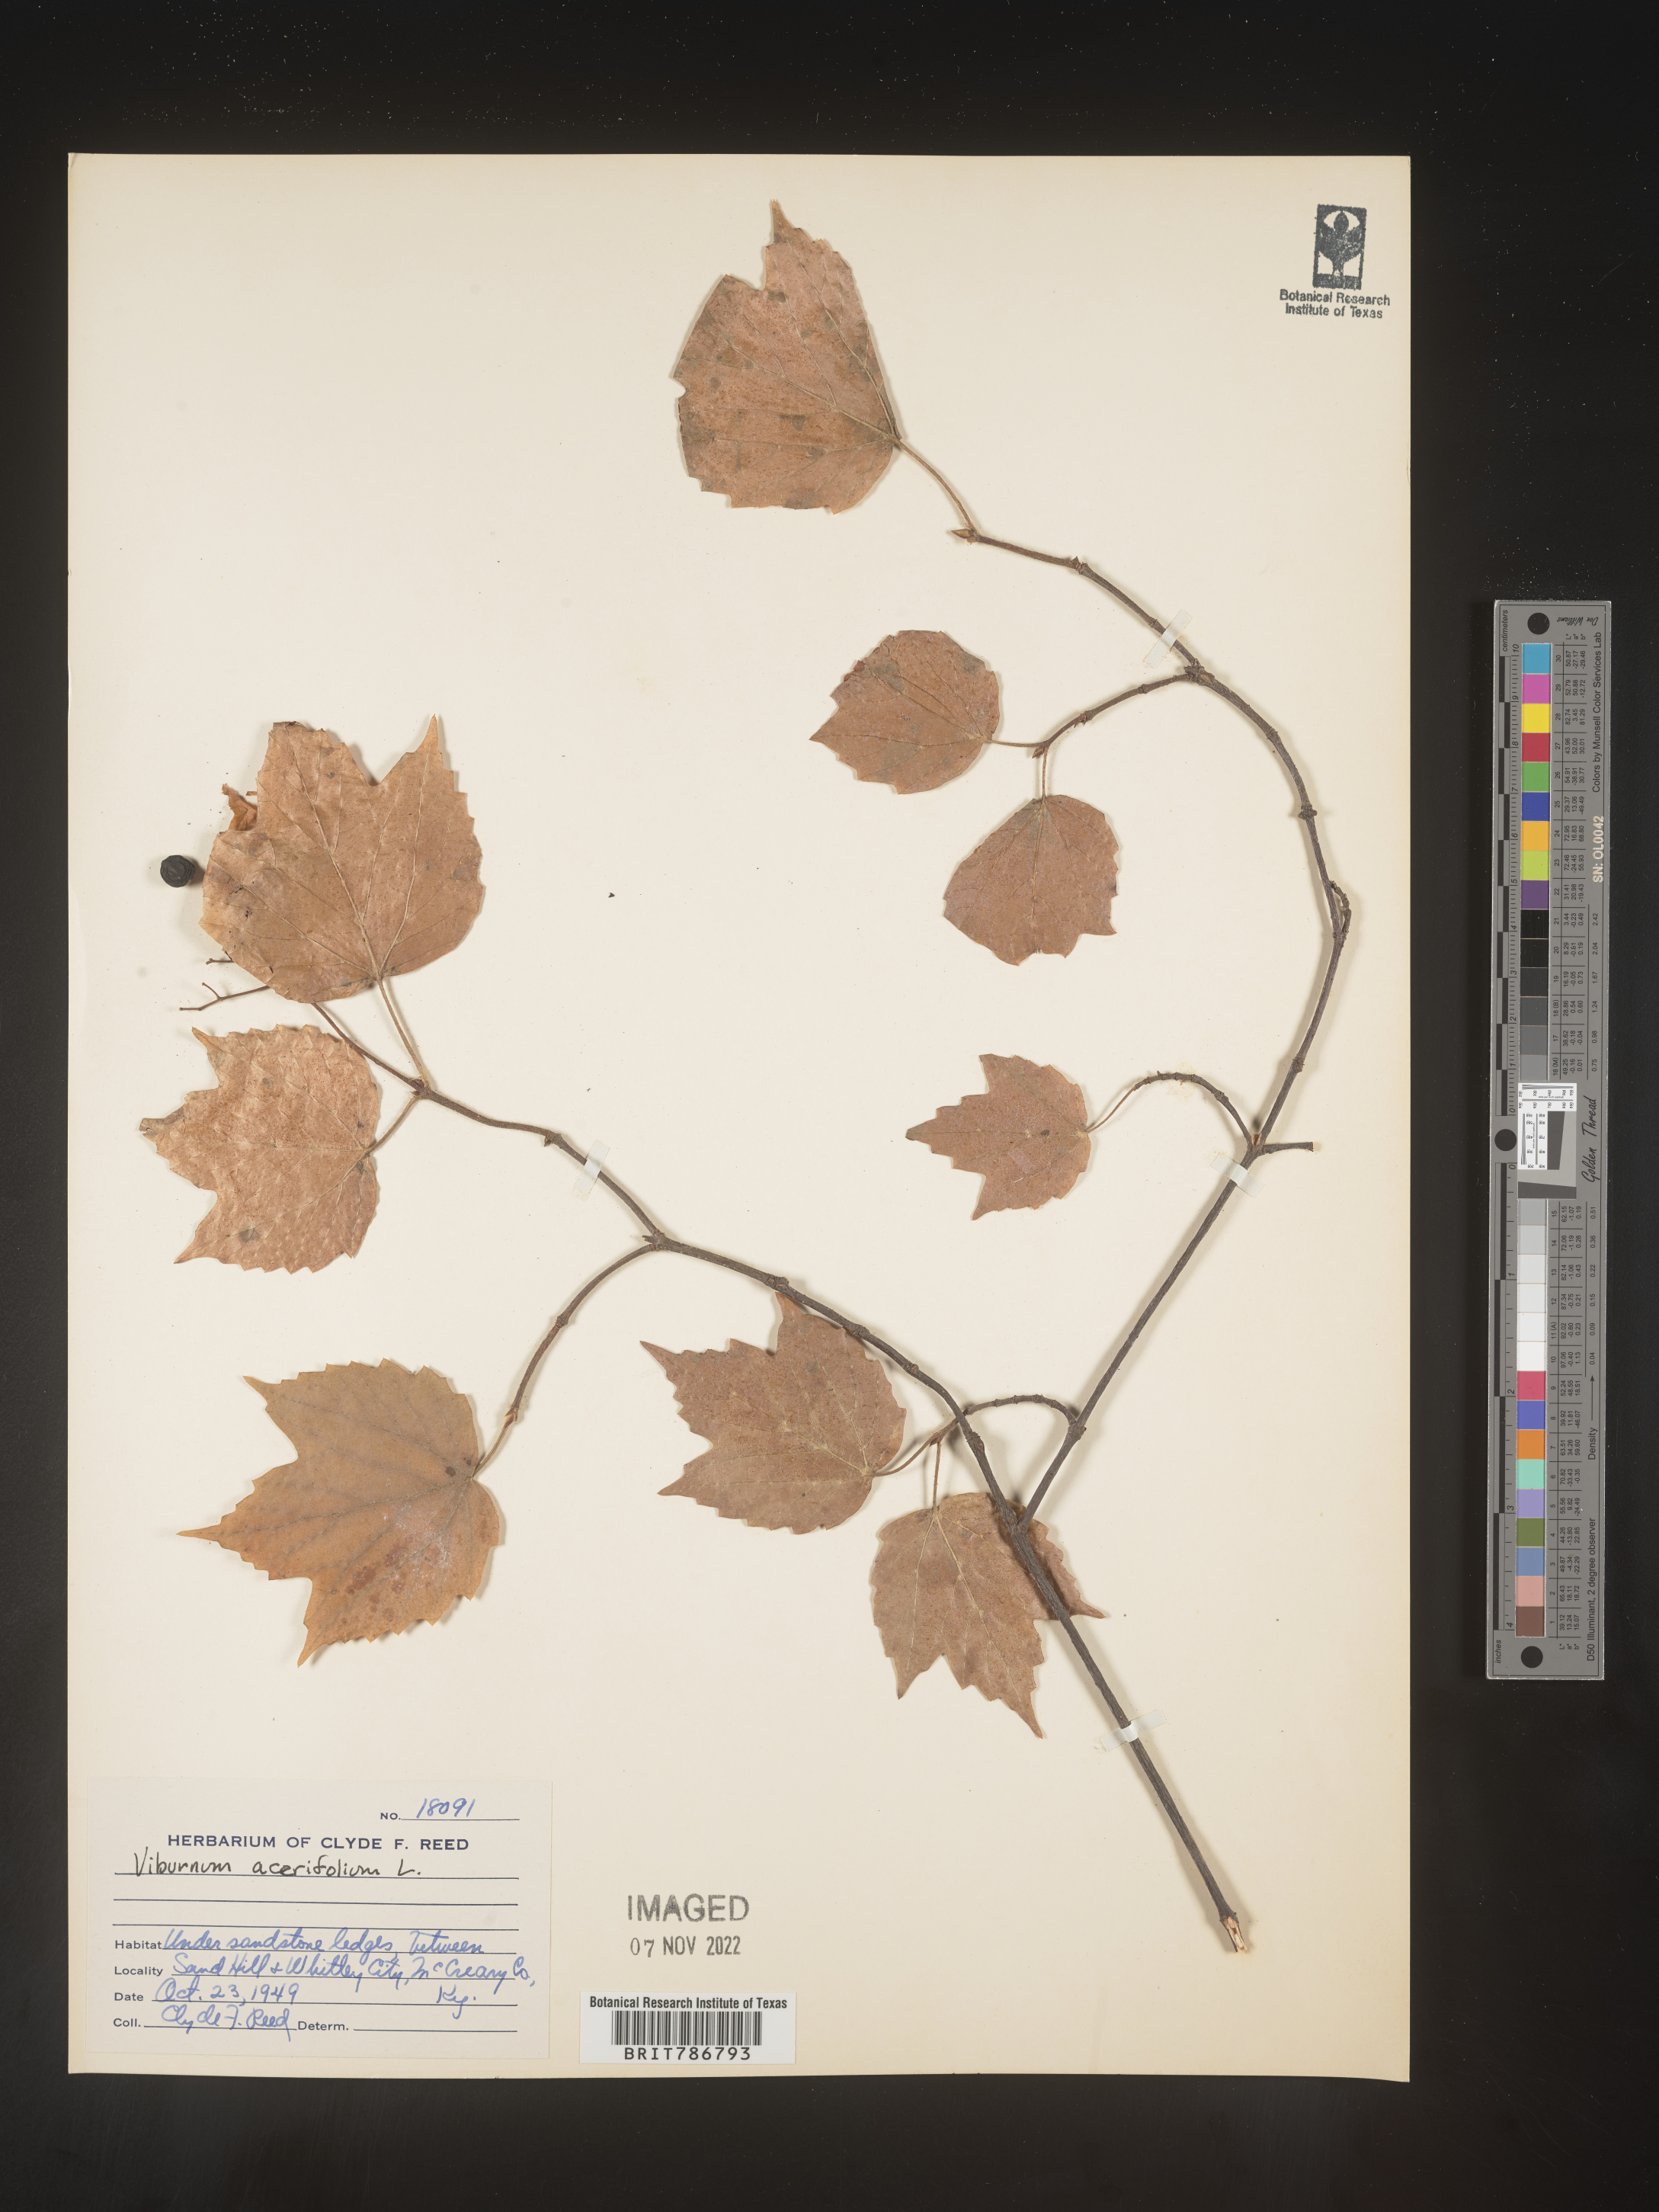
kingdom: Plantae
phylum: Tracheophyta
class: Magnoliopsida
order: Dipsacales
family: Viburnaceae
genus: Viburnum
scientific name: Viburnum acerifolium
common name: Dockmackie
